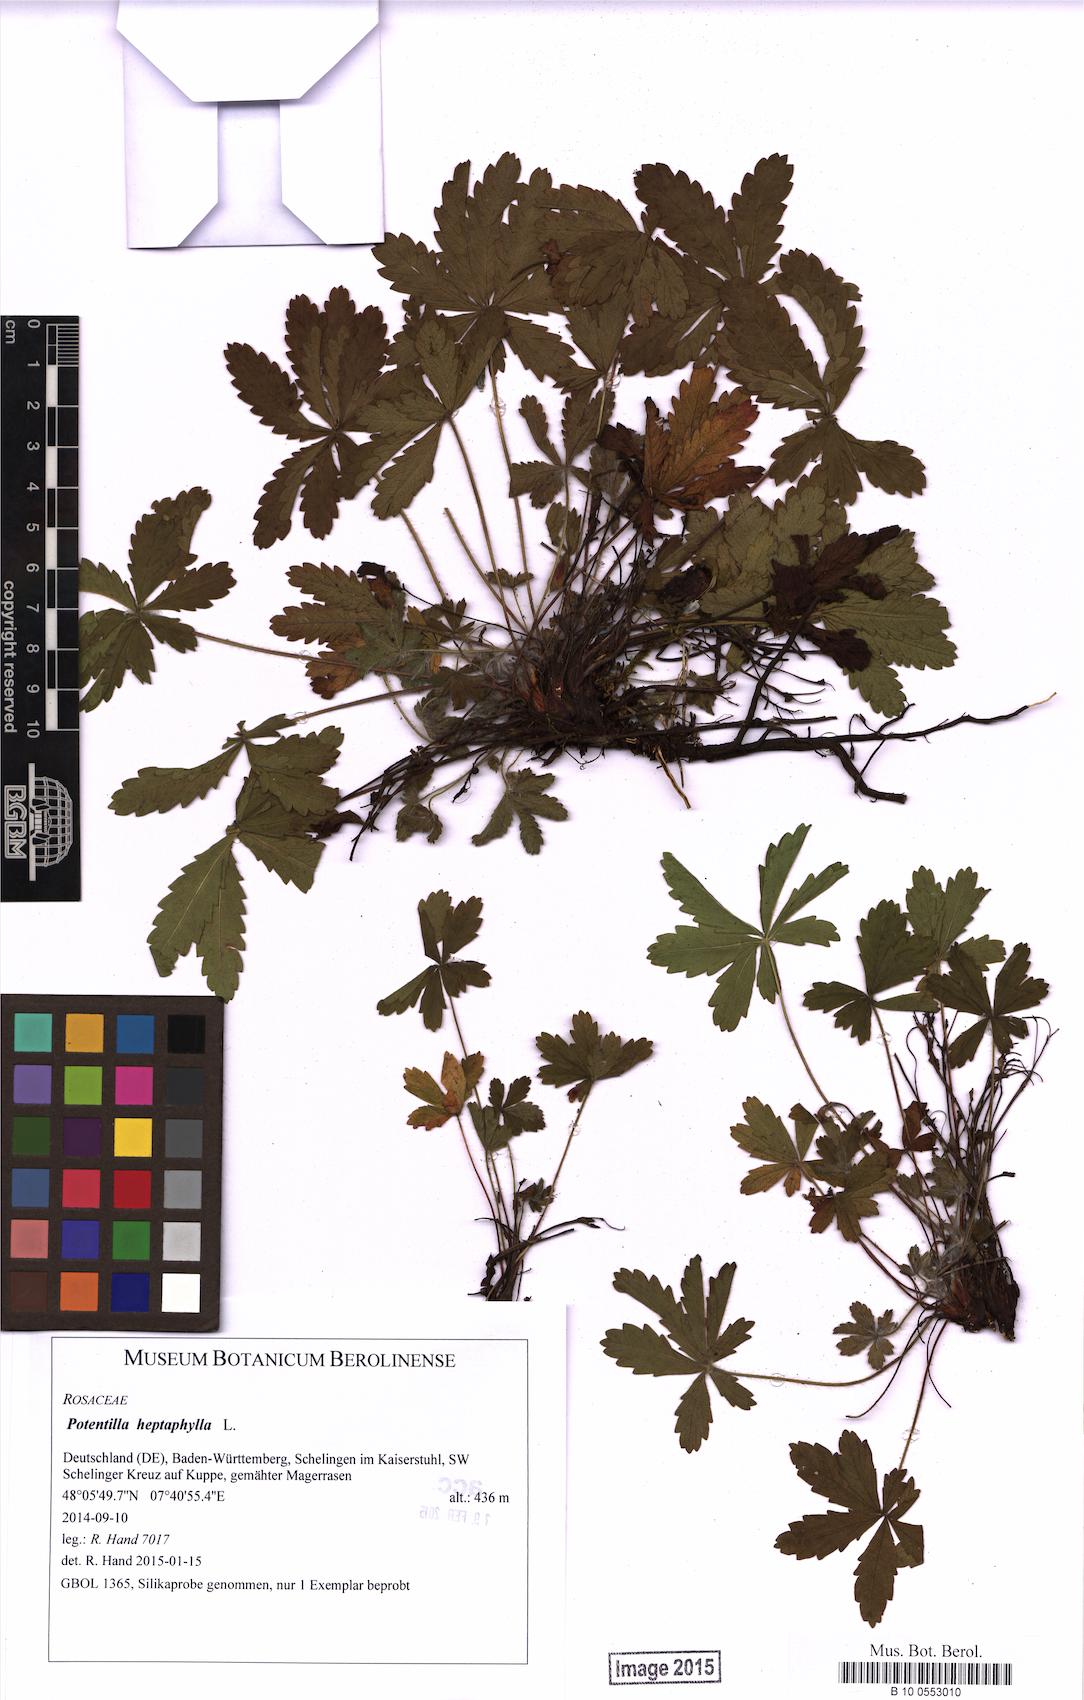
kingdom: Plantae
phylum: Tracheophyta
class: Magnoliopsida
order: Rosales
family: Rosaceae
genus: Potentilla
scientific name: Potentilla heptaphylla
